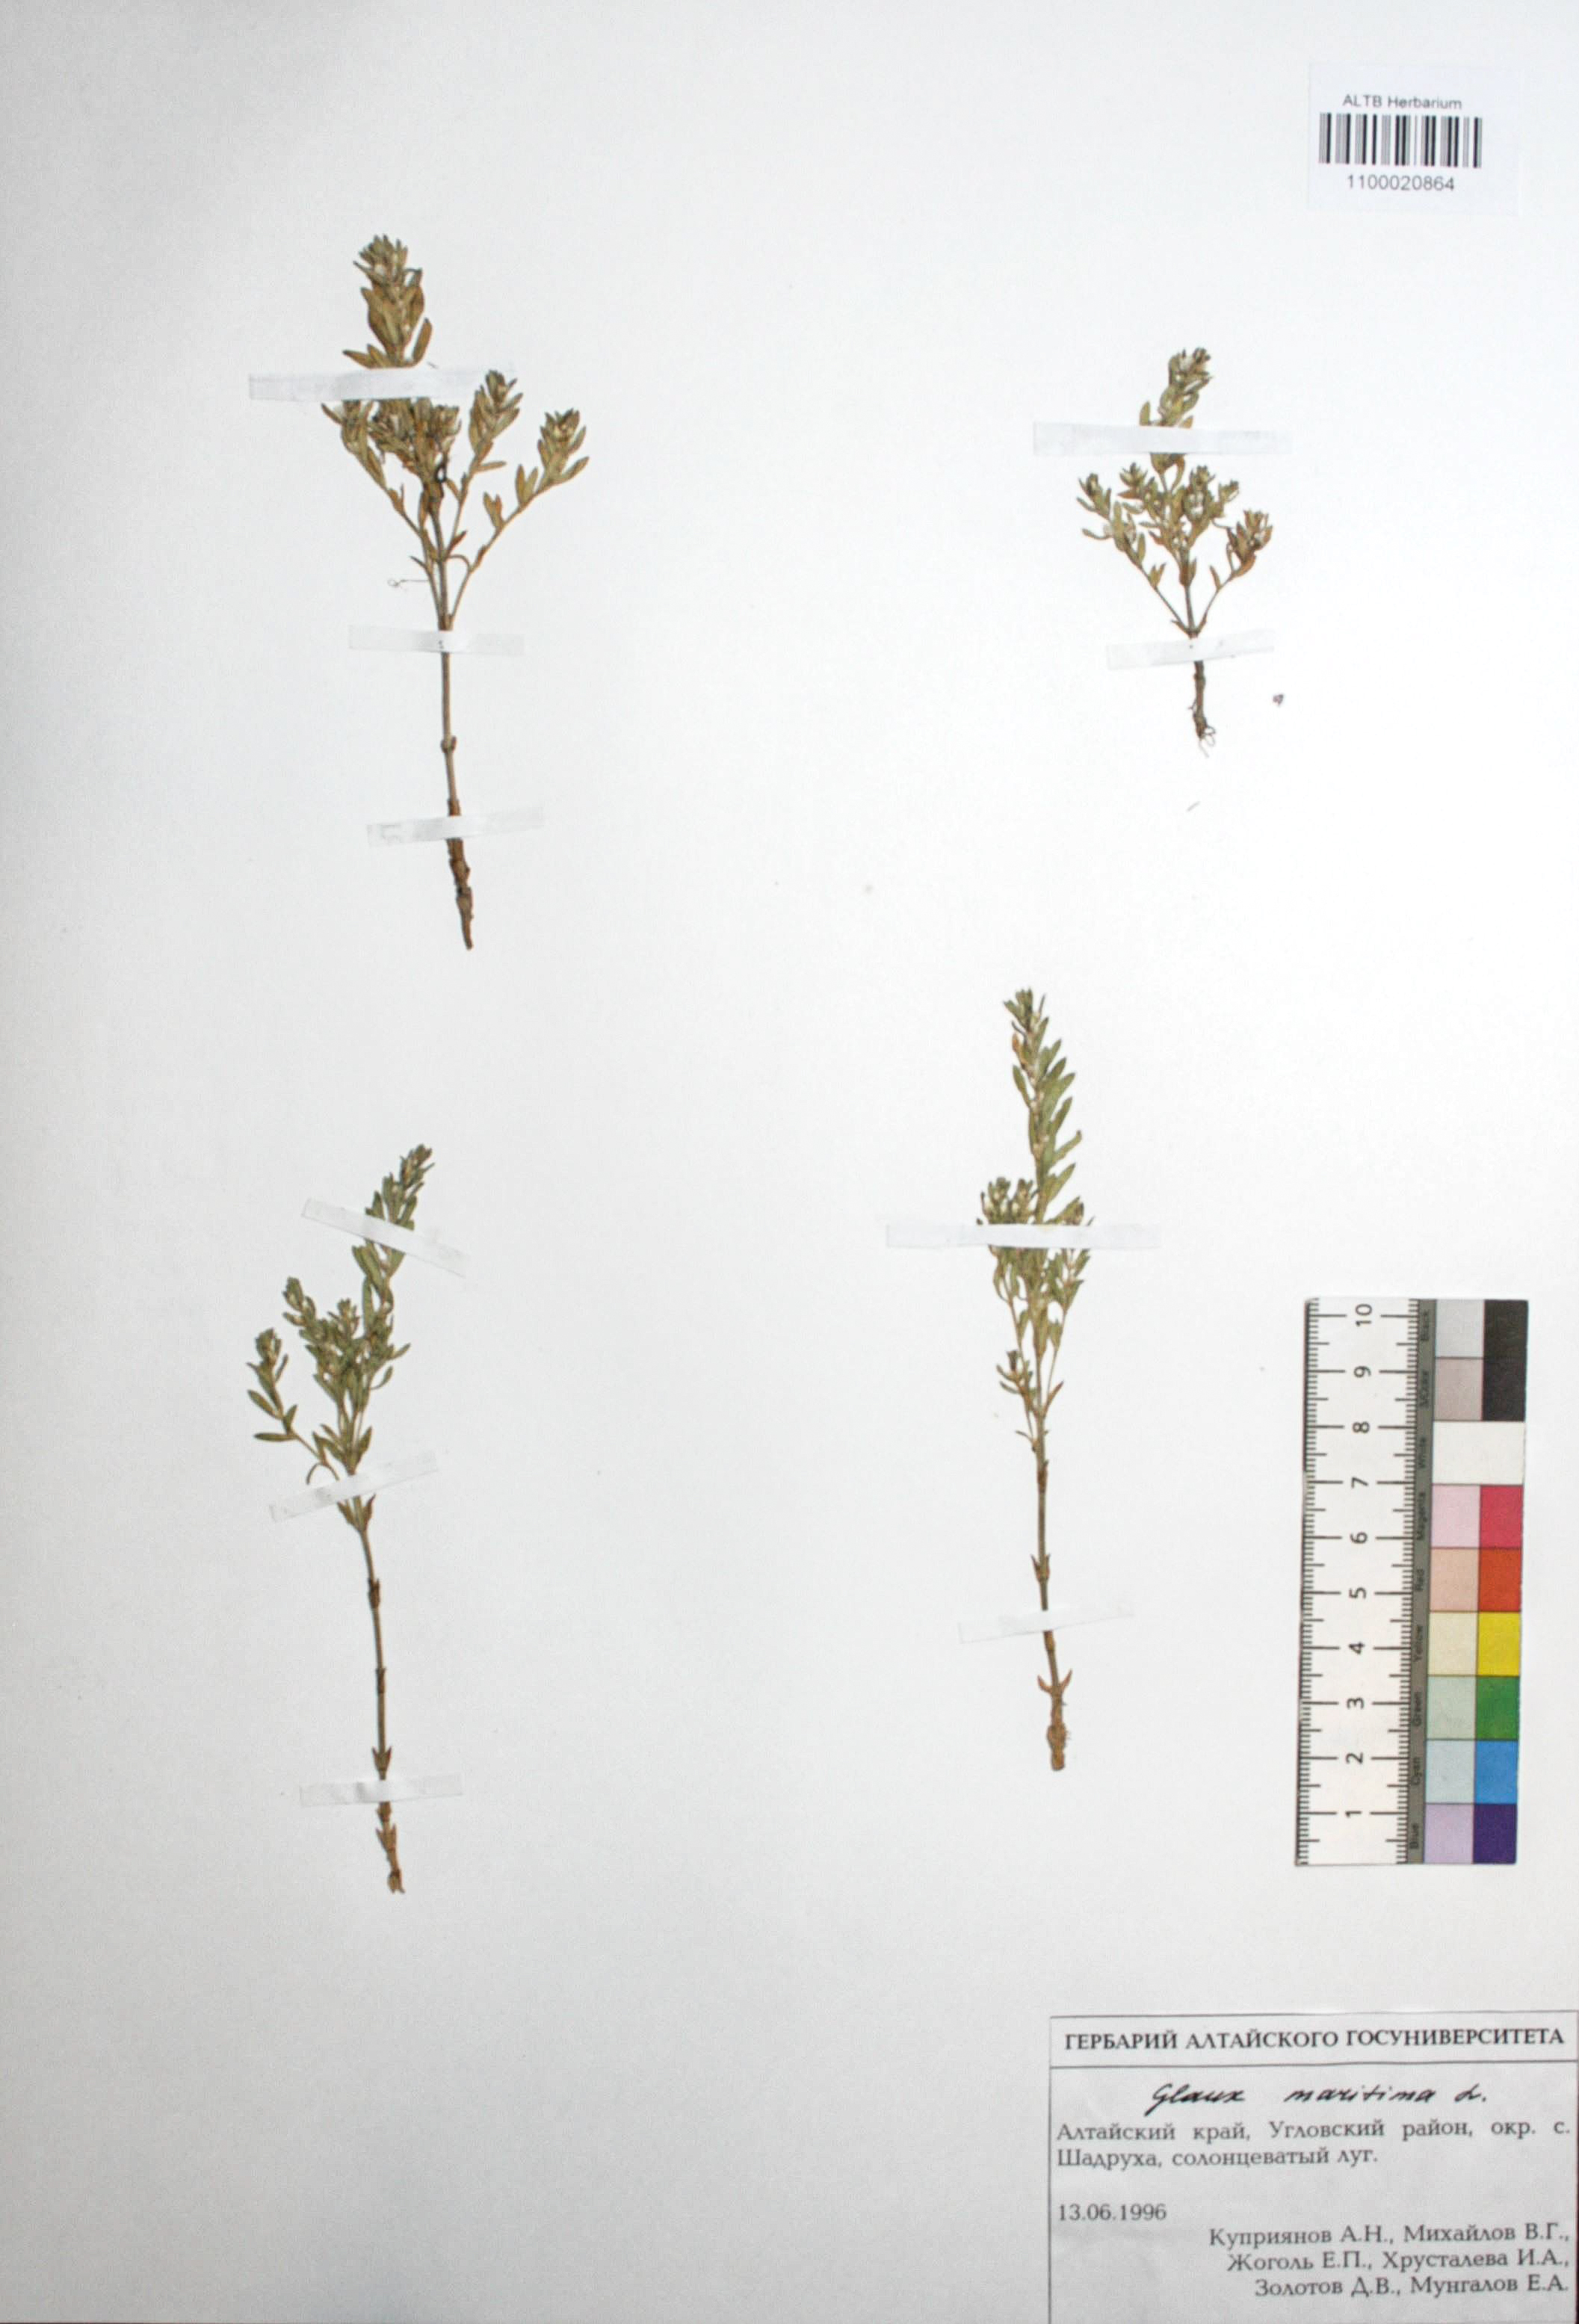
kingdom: Plantae
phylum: Tracheophyta
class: Magnoliopsida
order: Ericales
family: Primulaceae
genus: Lysimachia
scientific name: Lysimachia maritima
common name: Sea milkwort
